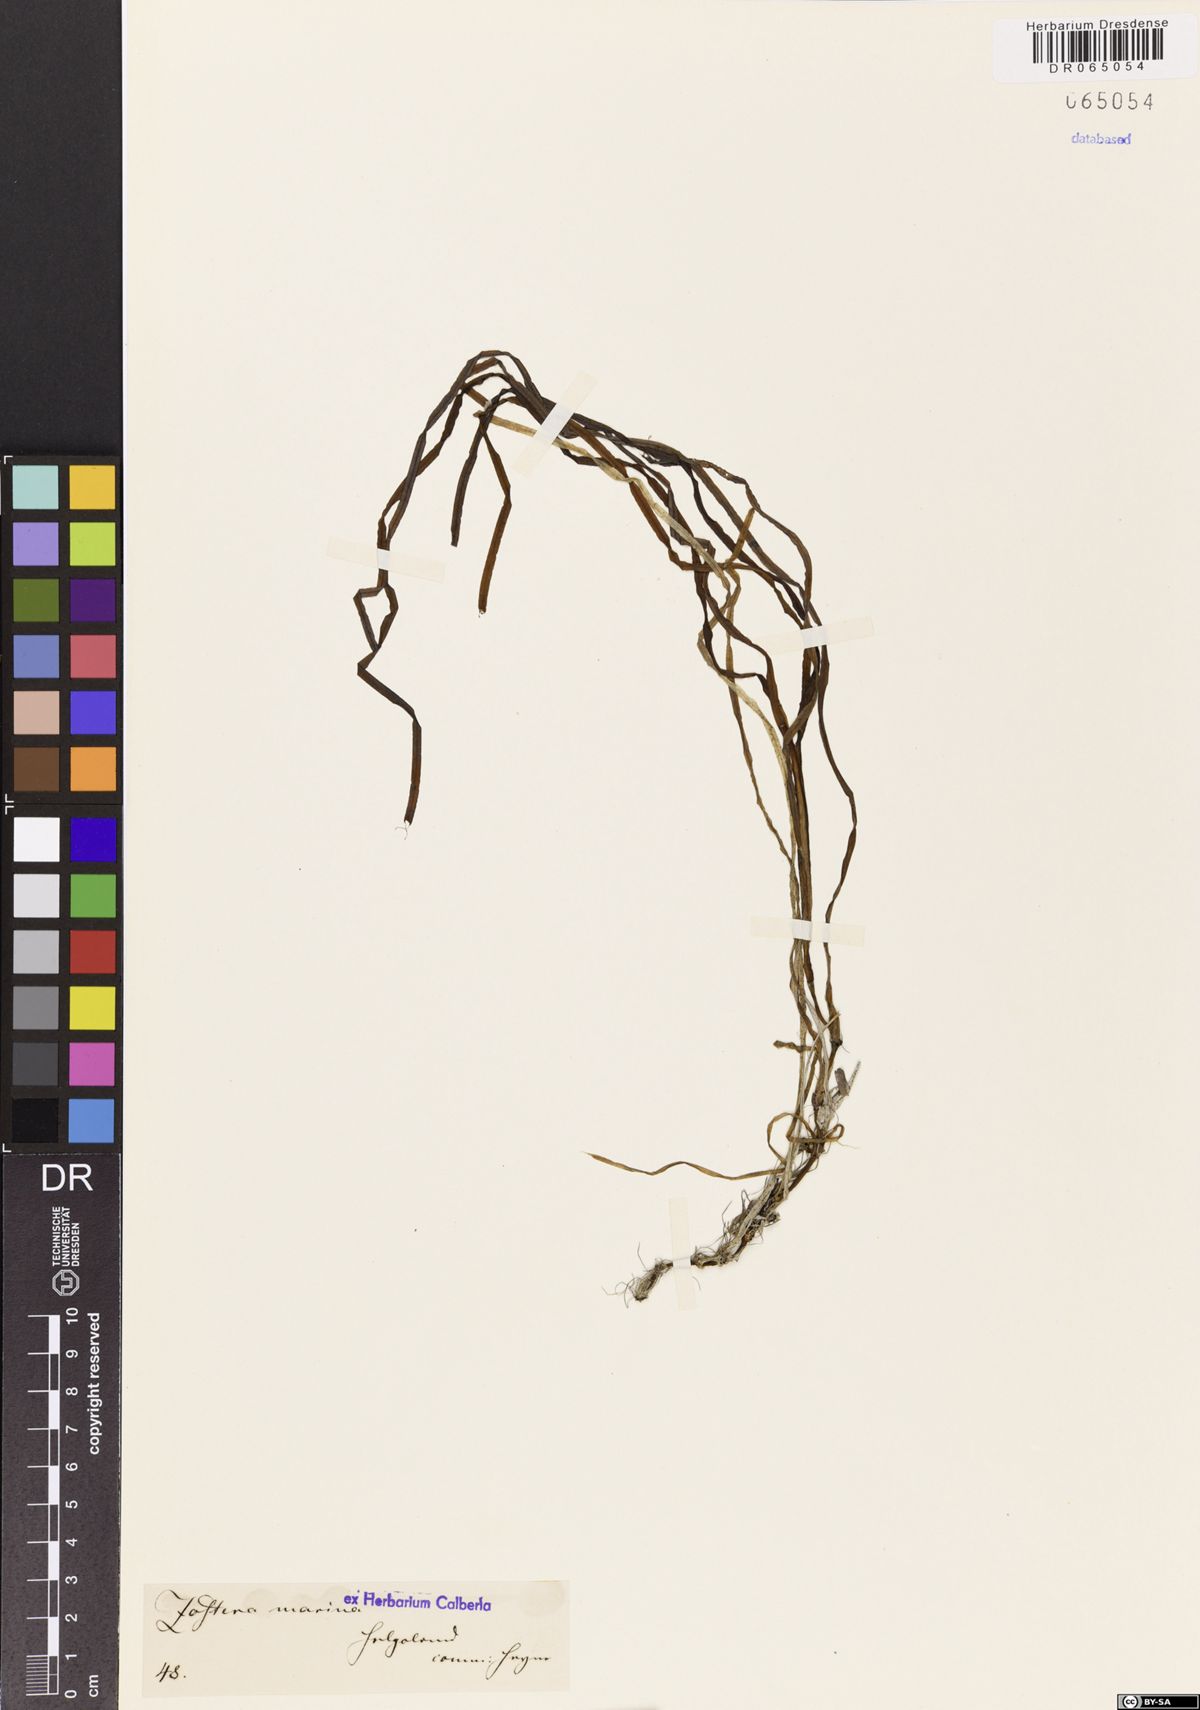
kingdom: Plantae
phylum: Tracheophyta
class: Liliopsida
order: Alismatales
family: Zosteraceae
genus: Zostera
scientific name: Zostera marina
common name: Eelgrass
